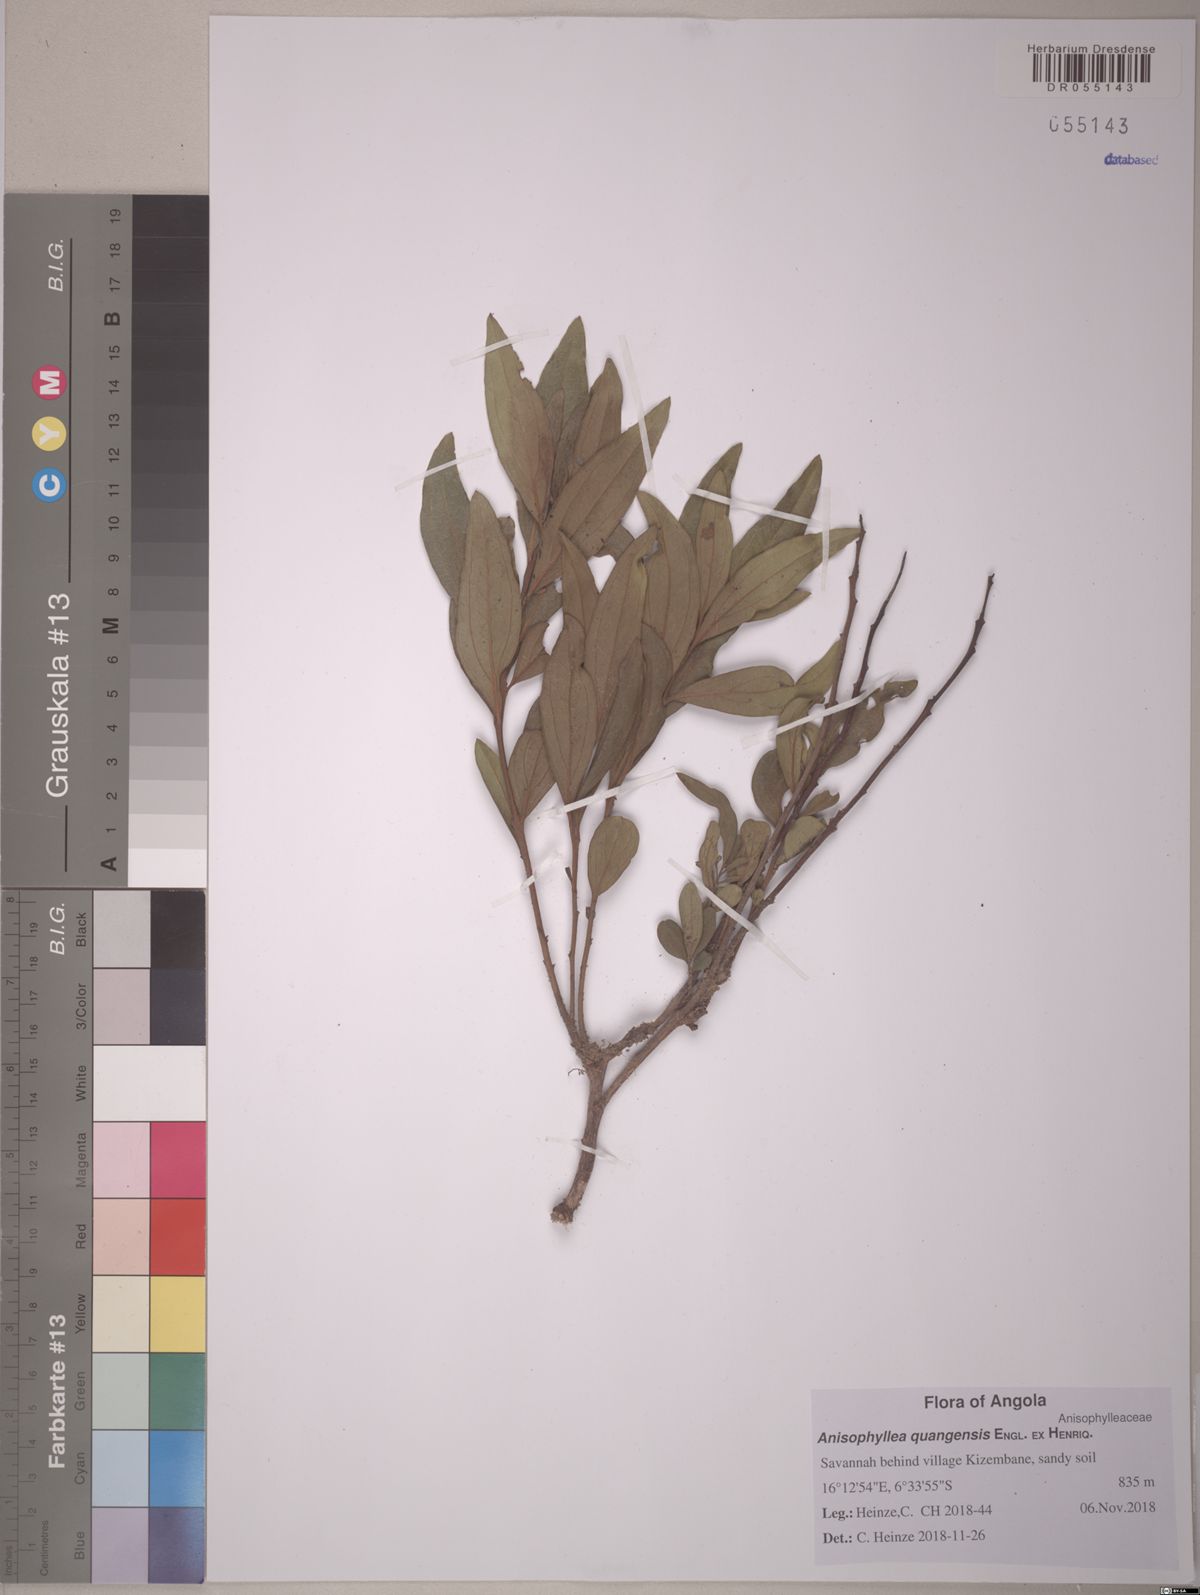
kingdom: Plantae
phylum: Tracheophyta
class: Magnoliopsida
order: Cucurbitales
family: Anisophylleaceae
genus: Anisophyllea
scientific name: Anisophyllea quangensis
